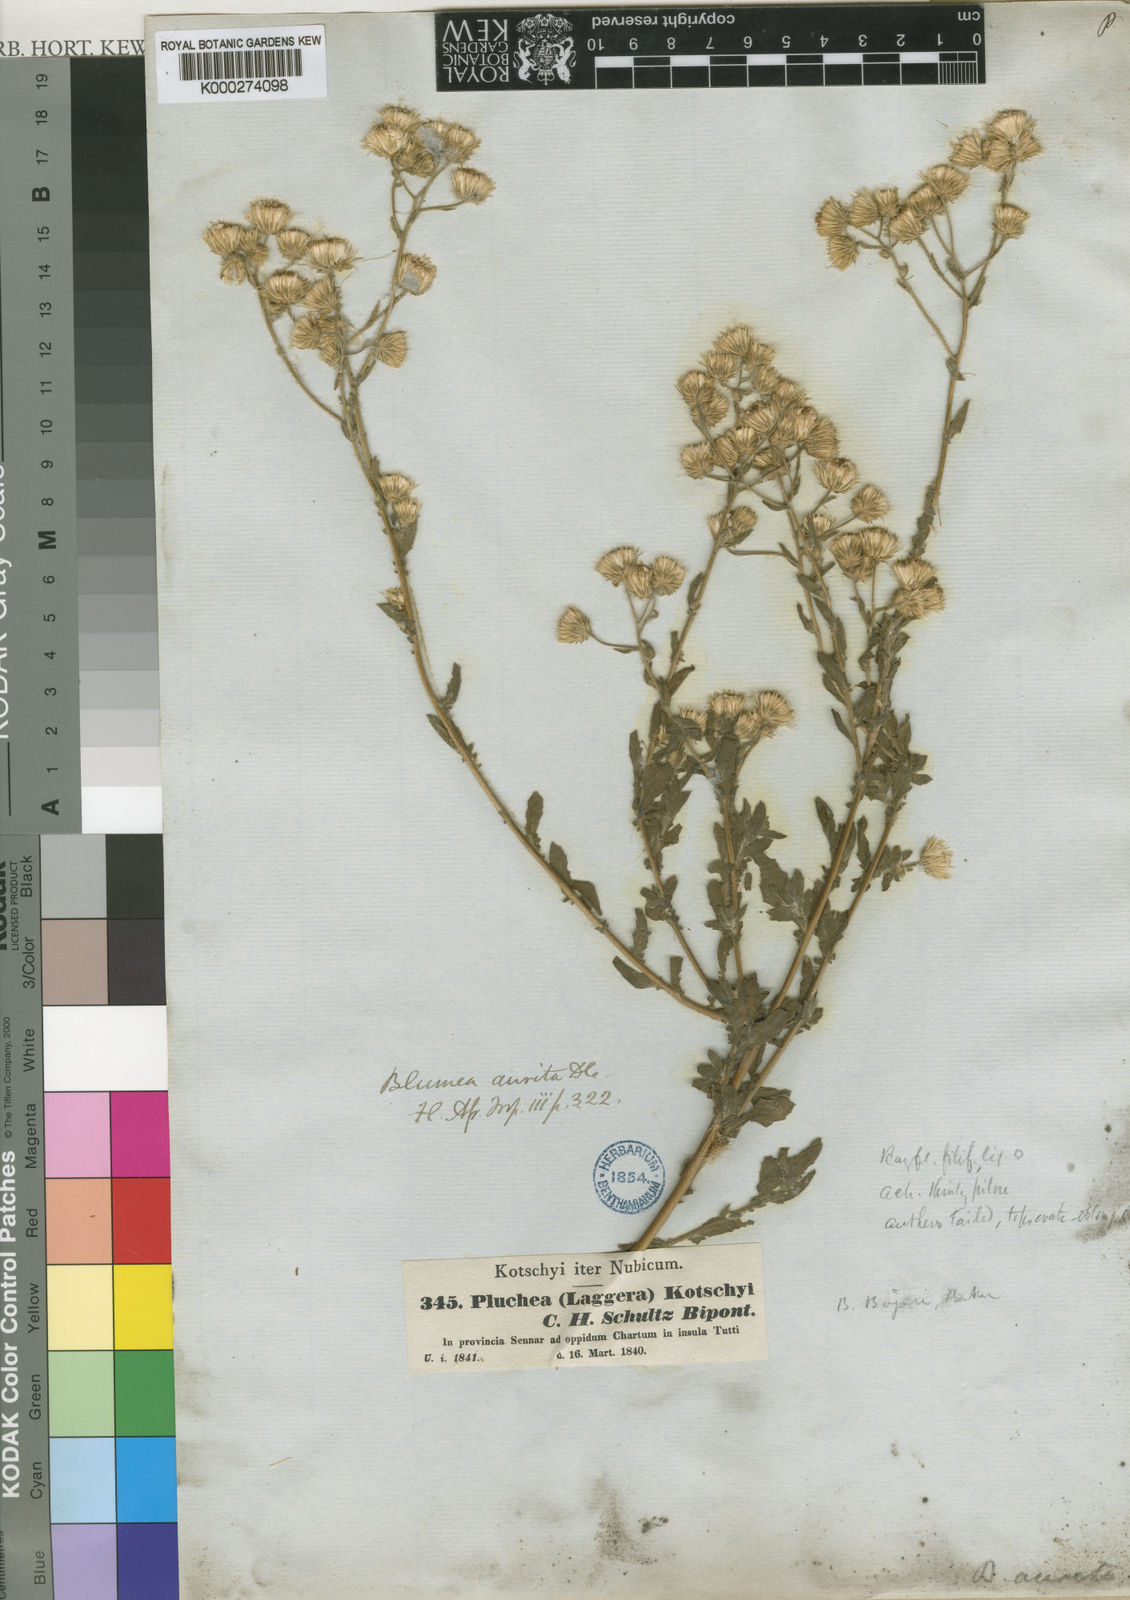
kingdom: Plantae
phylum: Tracheophyta
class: Magnoliopsida
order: Asterales
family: Asteraceae
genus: Pseudoconyza
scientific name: Pseudoconyza viscosa
